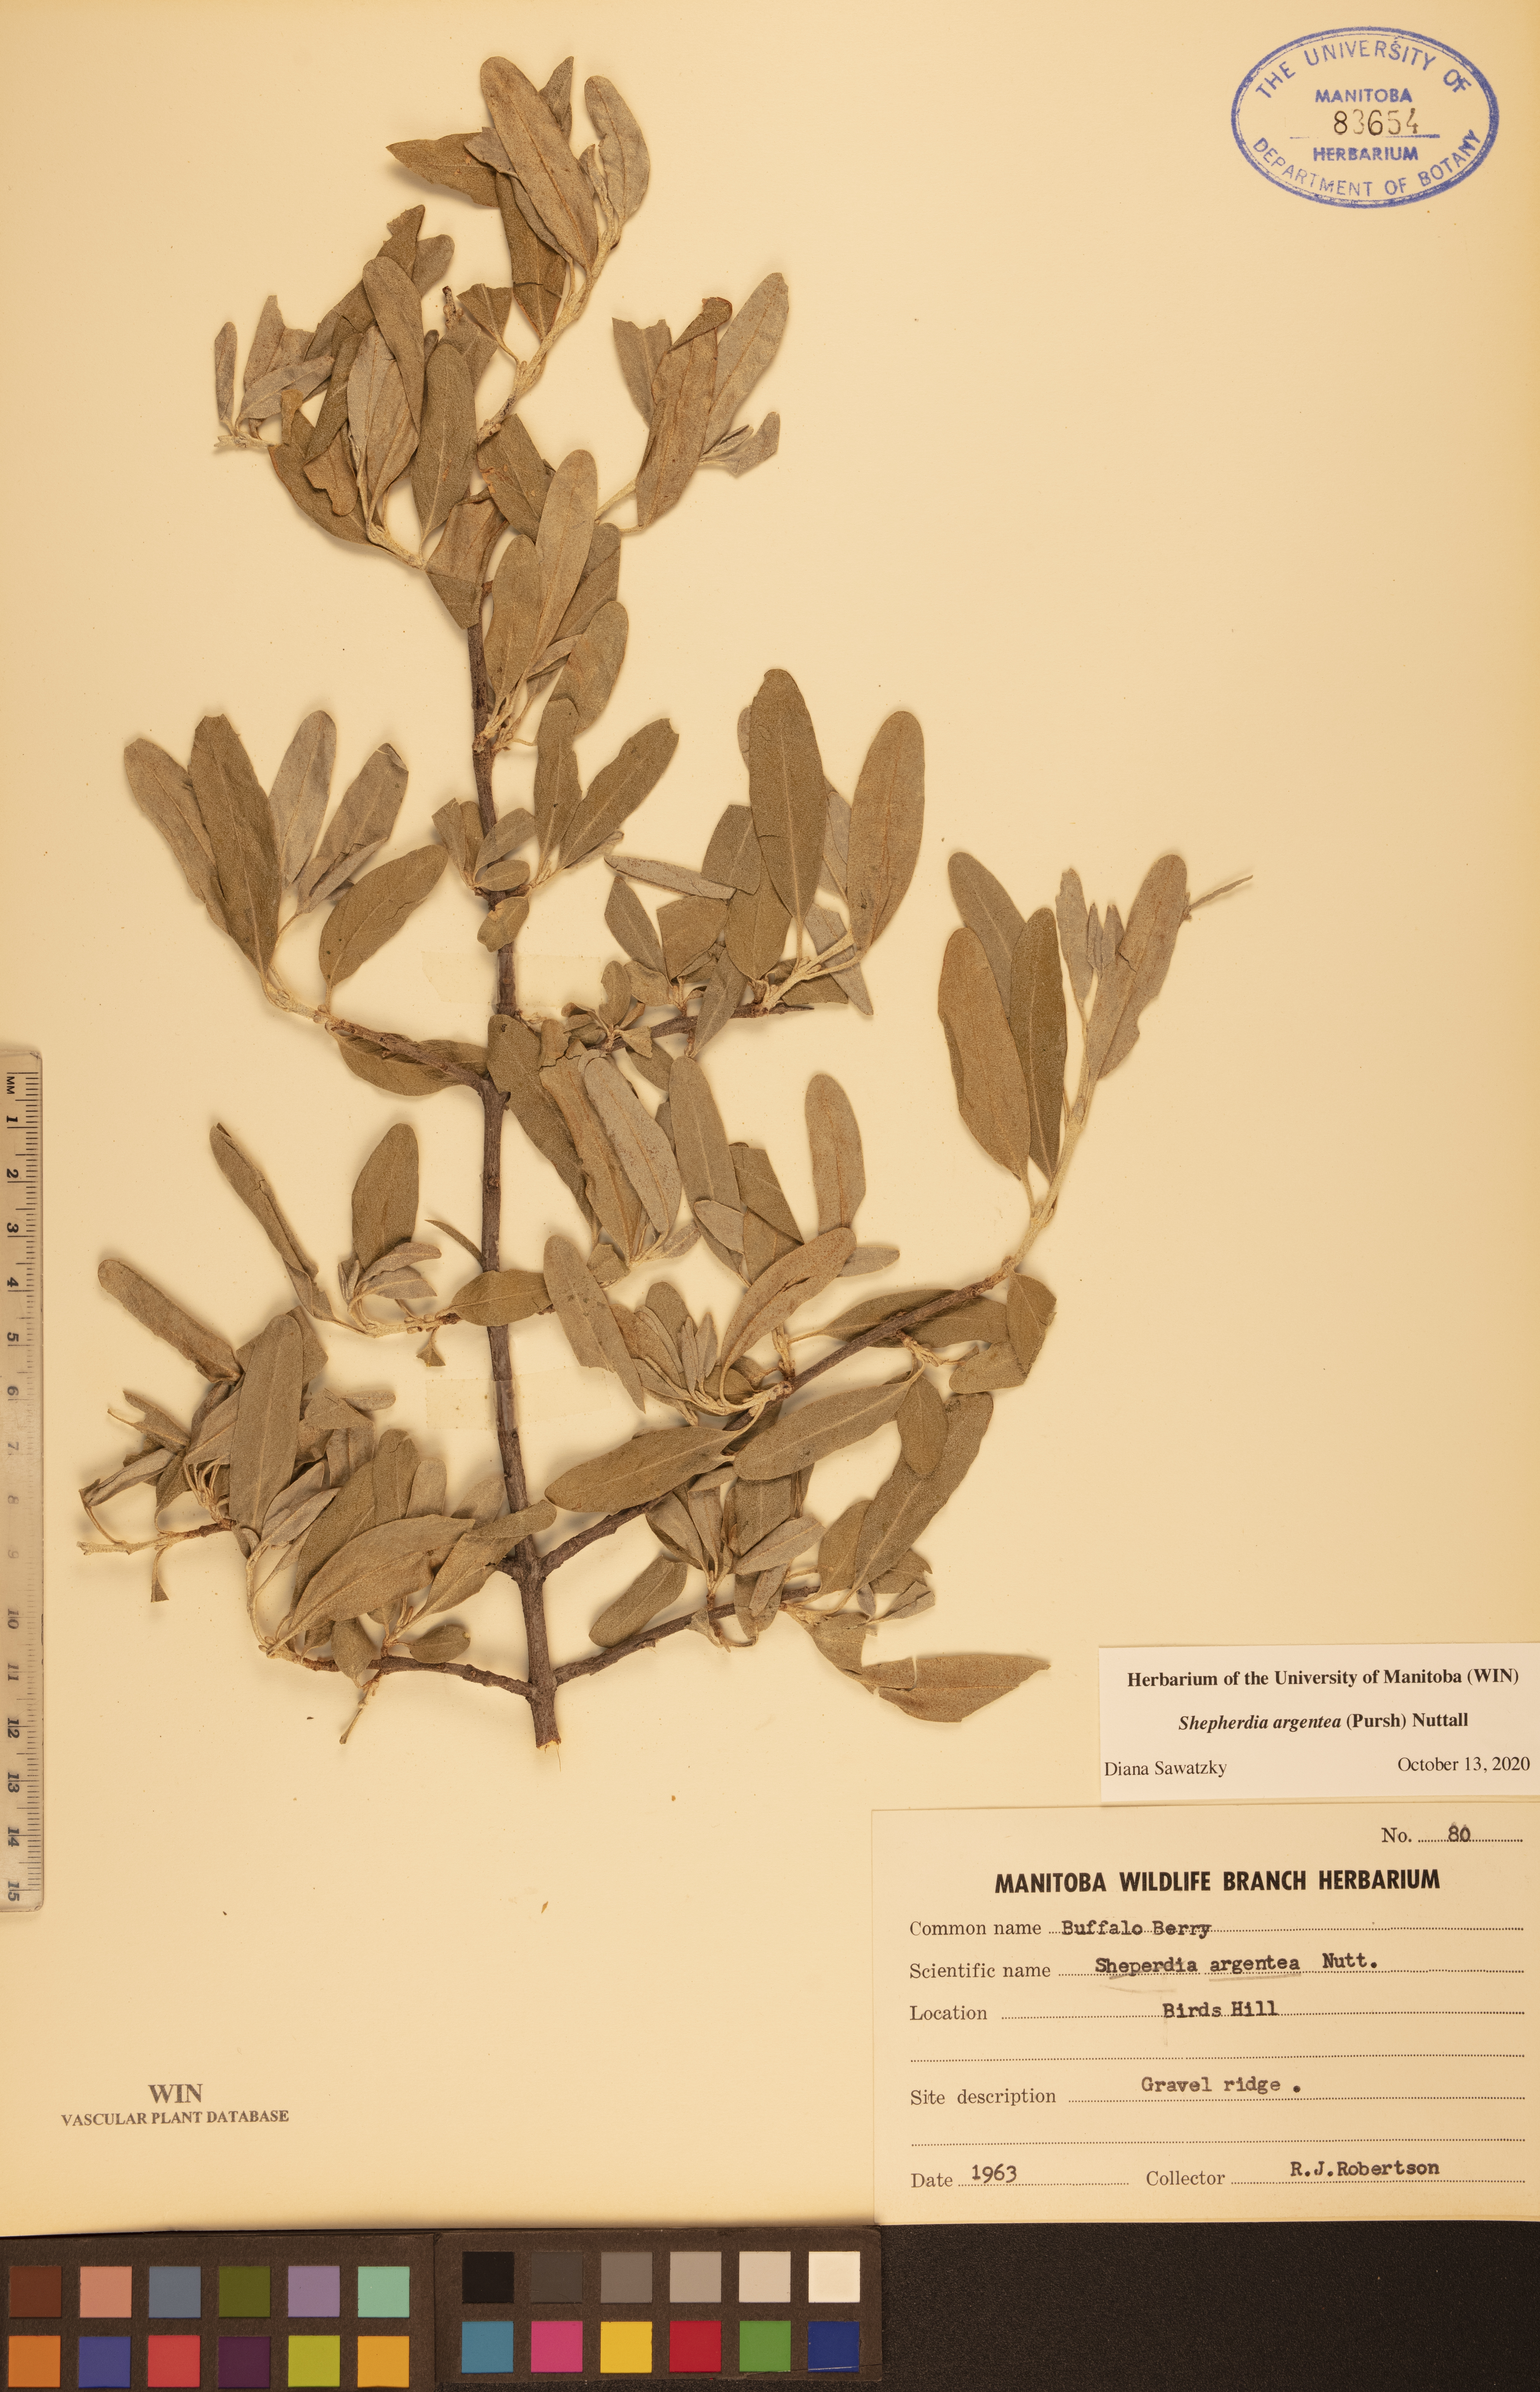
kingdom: Plantae
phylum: Tracheophyta
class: Magnoliopsida
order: Rosales
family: Elaeagnaceae
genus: Shepherdia
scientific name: Shepherdia argentea
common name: Silver buffaloberry
